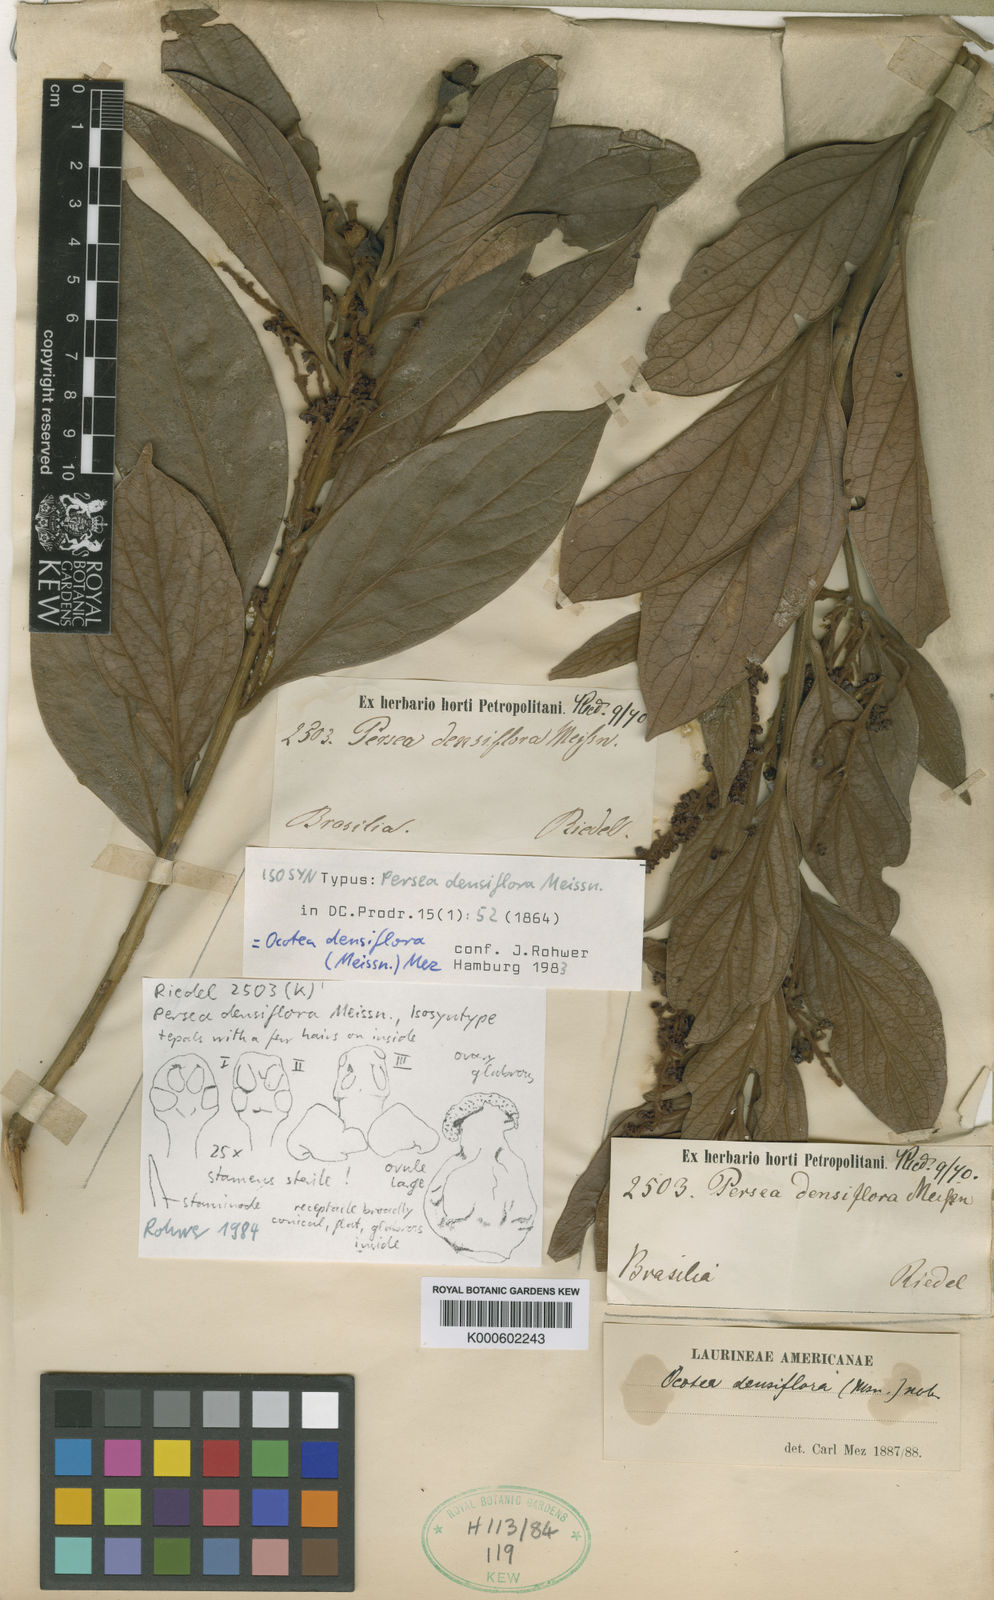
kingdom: Plantae
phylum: Tracheophyta
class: Magnoliopsida
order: Laurales
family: Lauraceae
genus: Ocotea
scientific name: Ocotea densiflora
